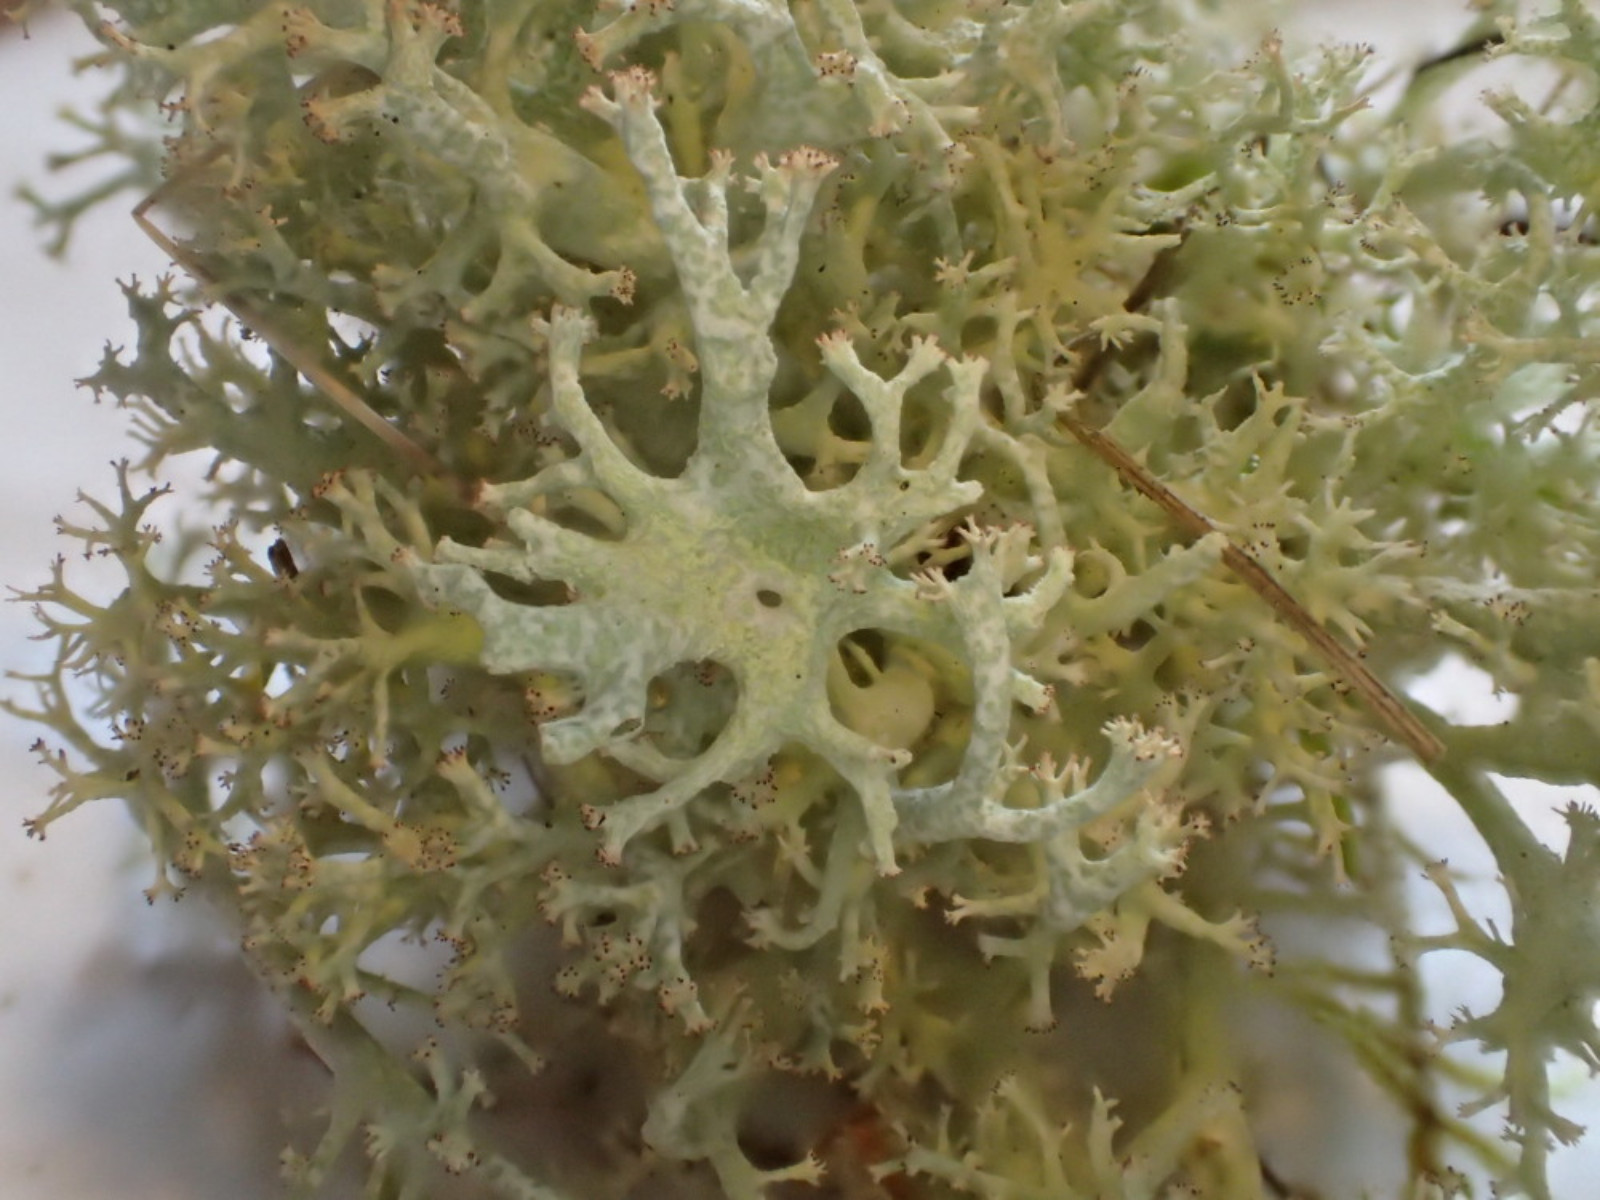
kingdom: Fungi
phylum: Ascomycota
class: Lecanoromycetes
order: Lecanorales
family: Cladoniaceae
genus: Cladonia
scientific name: Cladonia portentosa
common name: hede-rensdyrlav
